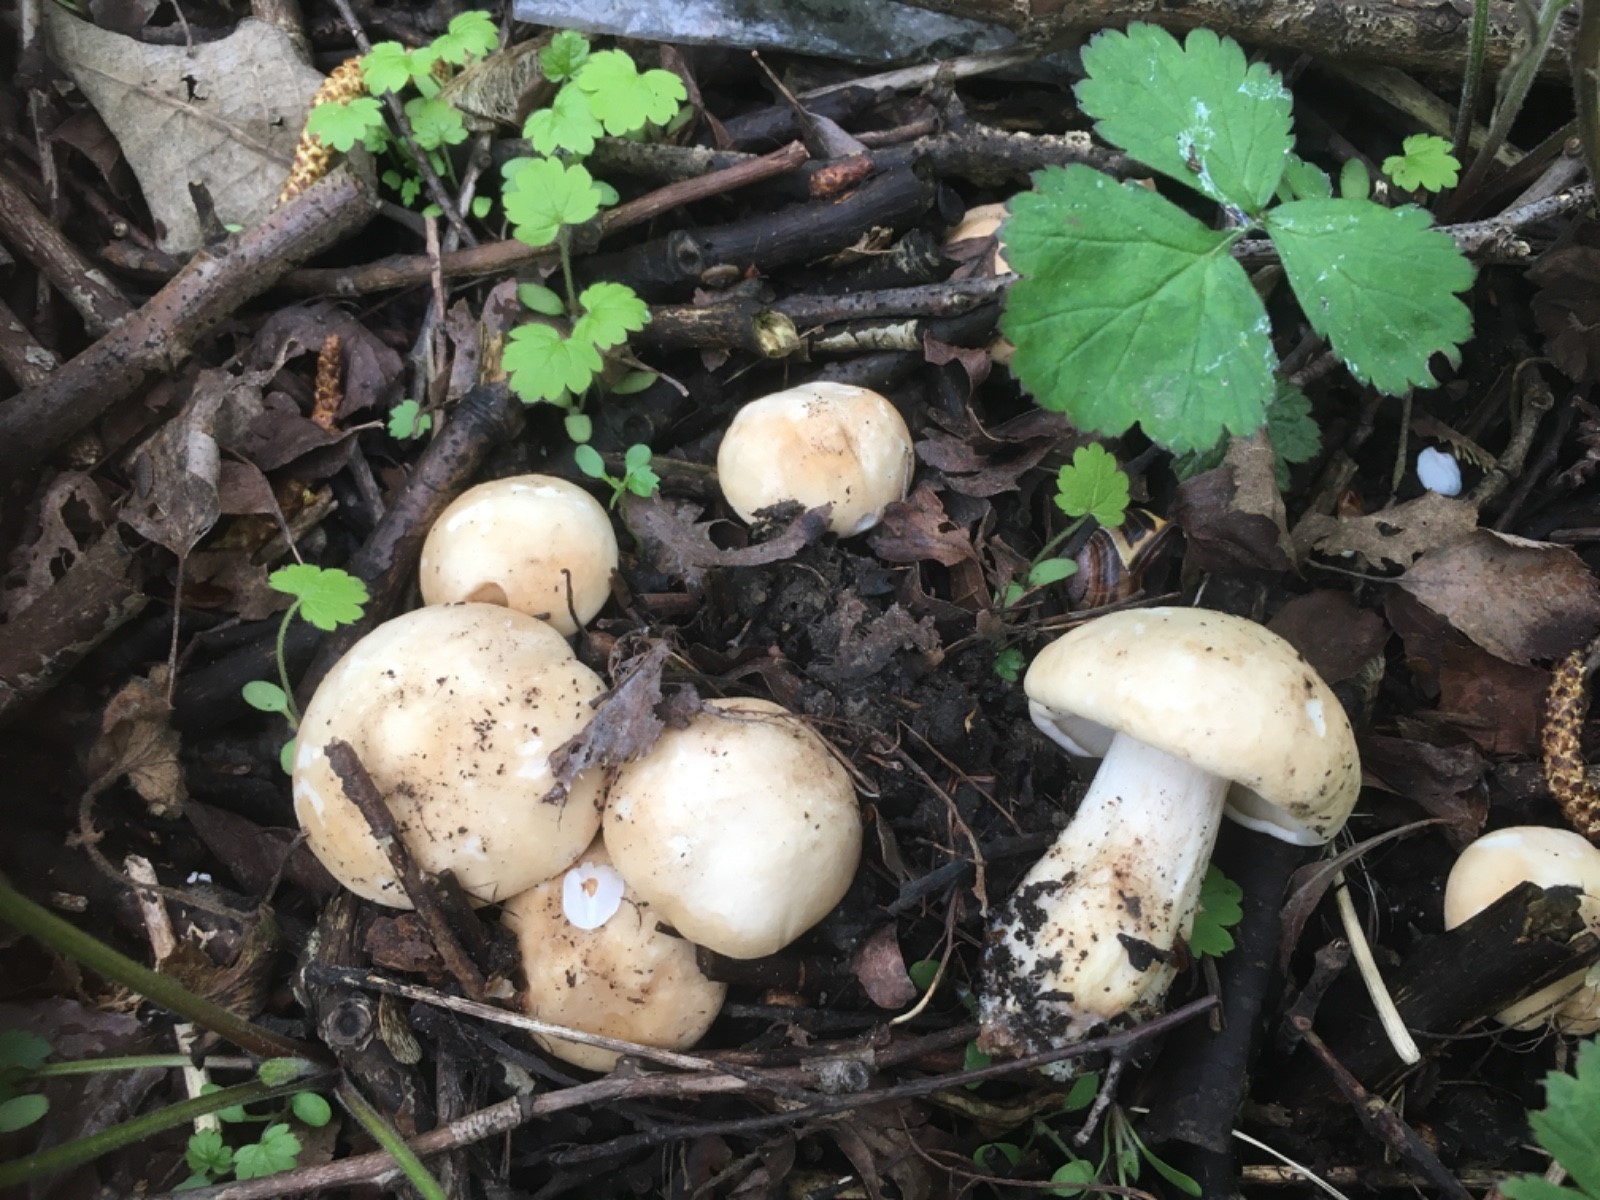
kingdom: Fungi
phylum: Basidiomycota
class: Agaricomycetes
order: Agaricales
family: Lyophyllaceae
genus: Calocybe
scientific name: Calocybe gambosa
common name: vårmusseron
